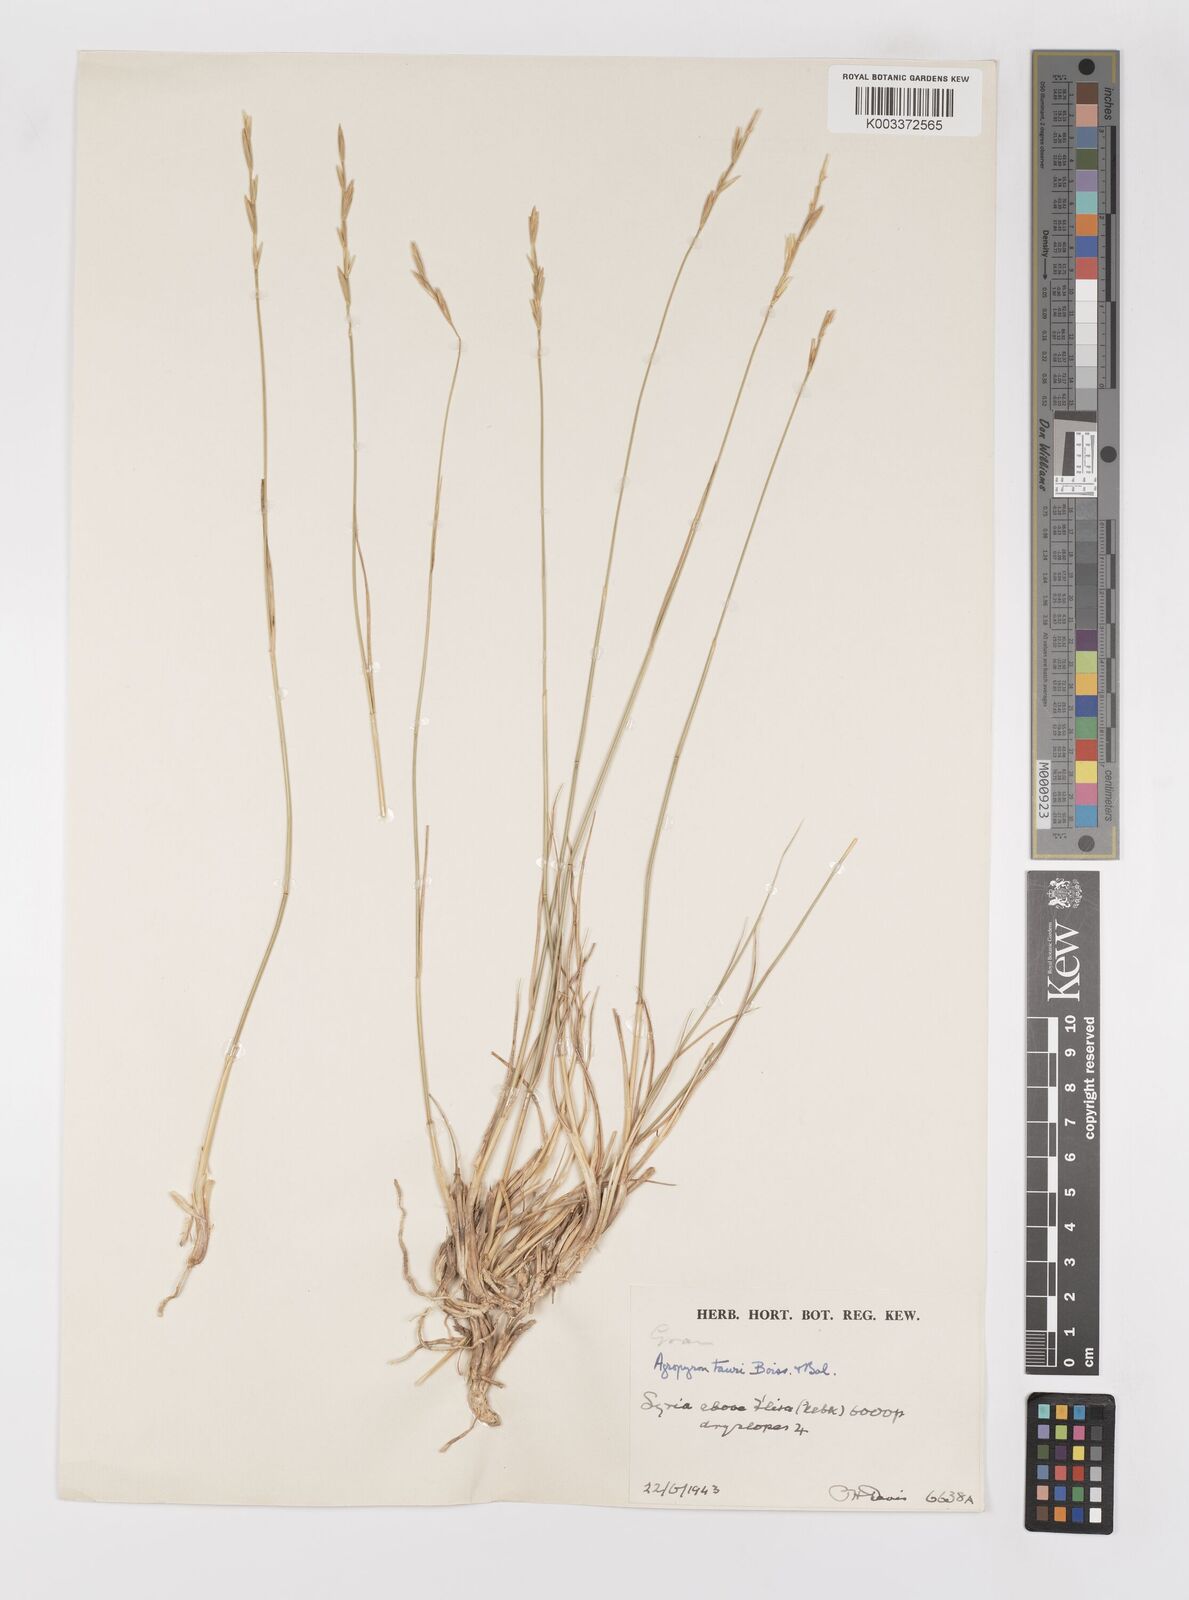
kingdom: Plantae
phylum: Tracheophyta
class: Liliopsida
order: Poales
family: Poaceae
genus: Pseudoroegneria
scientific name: Pseudoroegneria tauri
